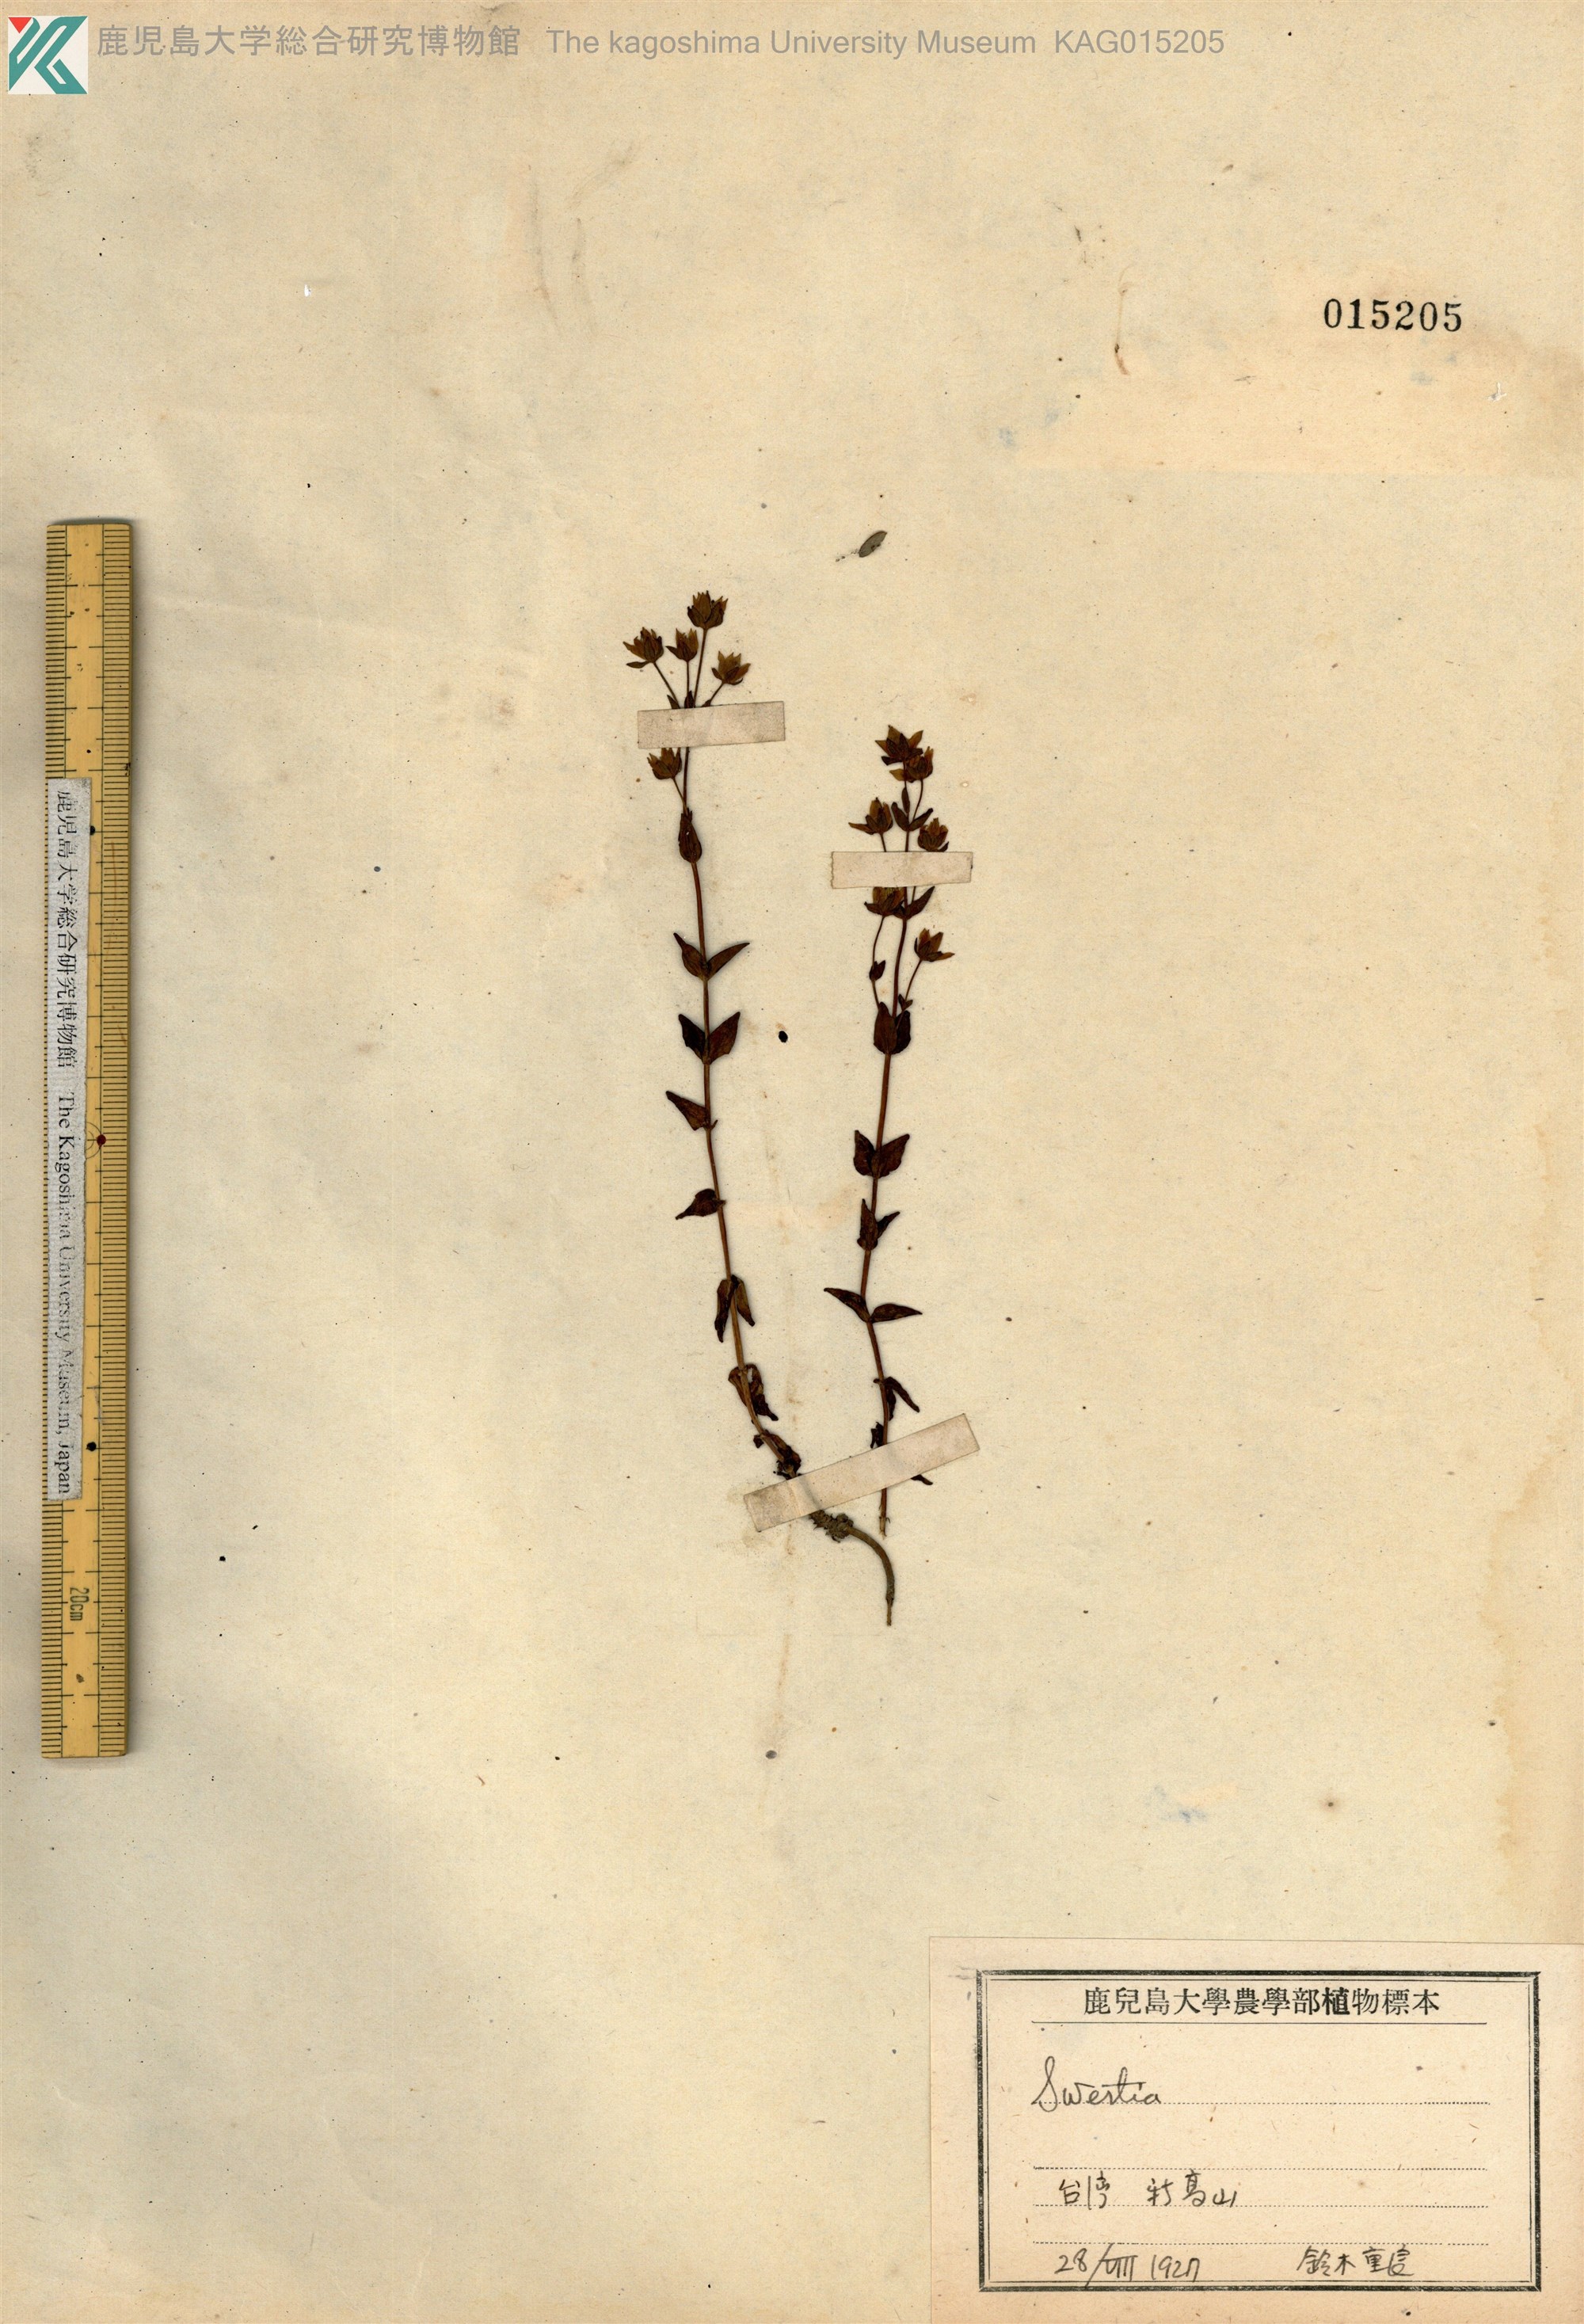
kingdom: Plantae
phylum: Tracheophyta
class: Magnoliopsida
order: Gentianales
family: Gentianaceae
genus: Swertia
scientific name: Swertia tozanensis
